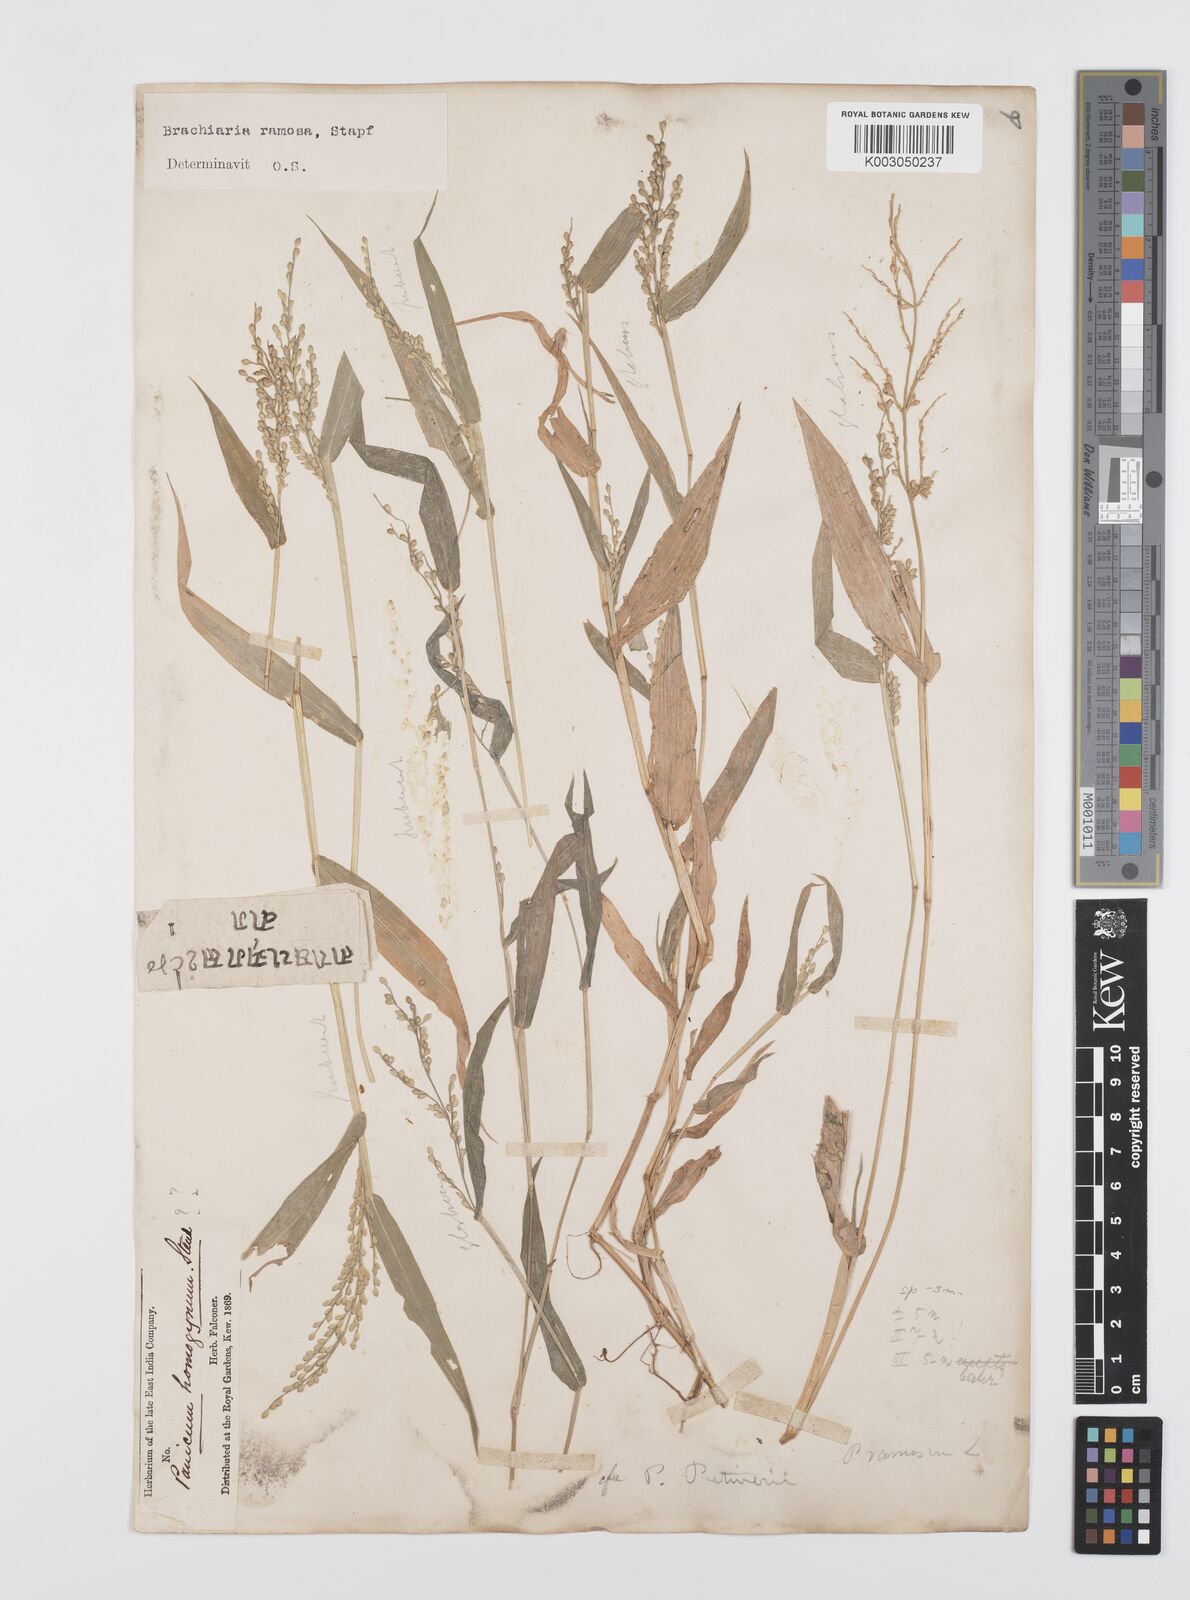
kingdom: Plantae
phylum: Tracheophyta
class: Liliopsida
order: Poales
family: Poaceae
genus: Urochloa
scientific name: Urochloa ramosa
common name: Browntop millet
